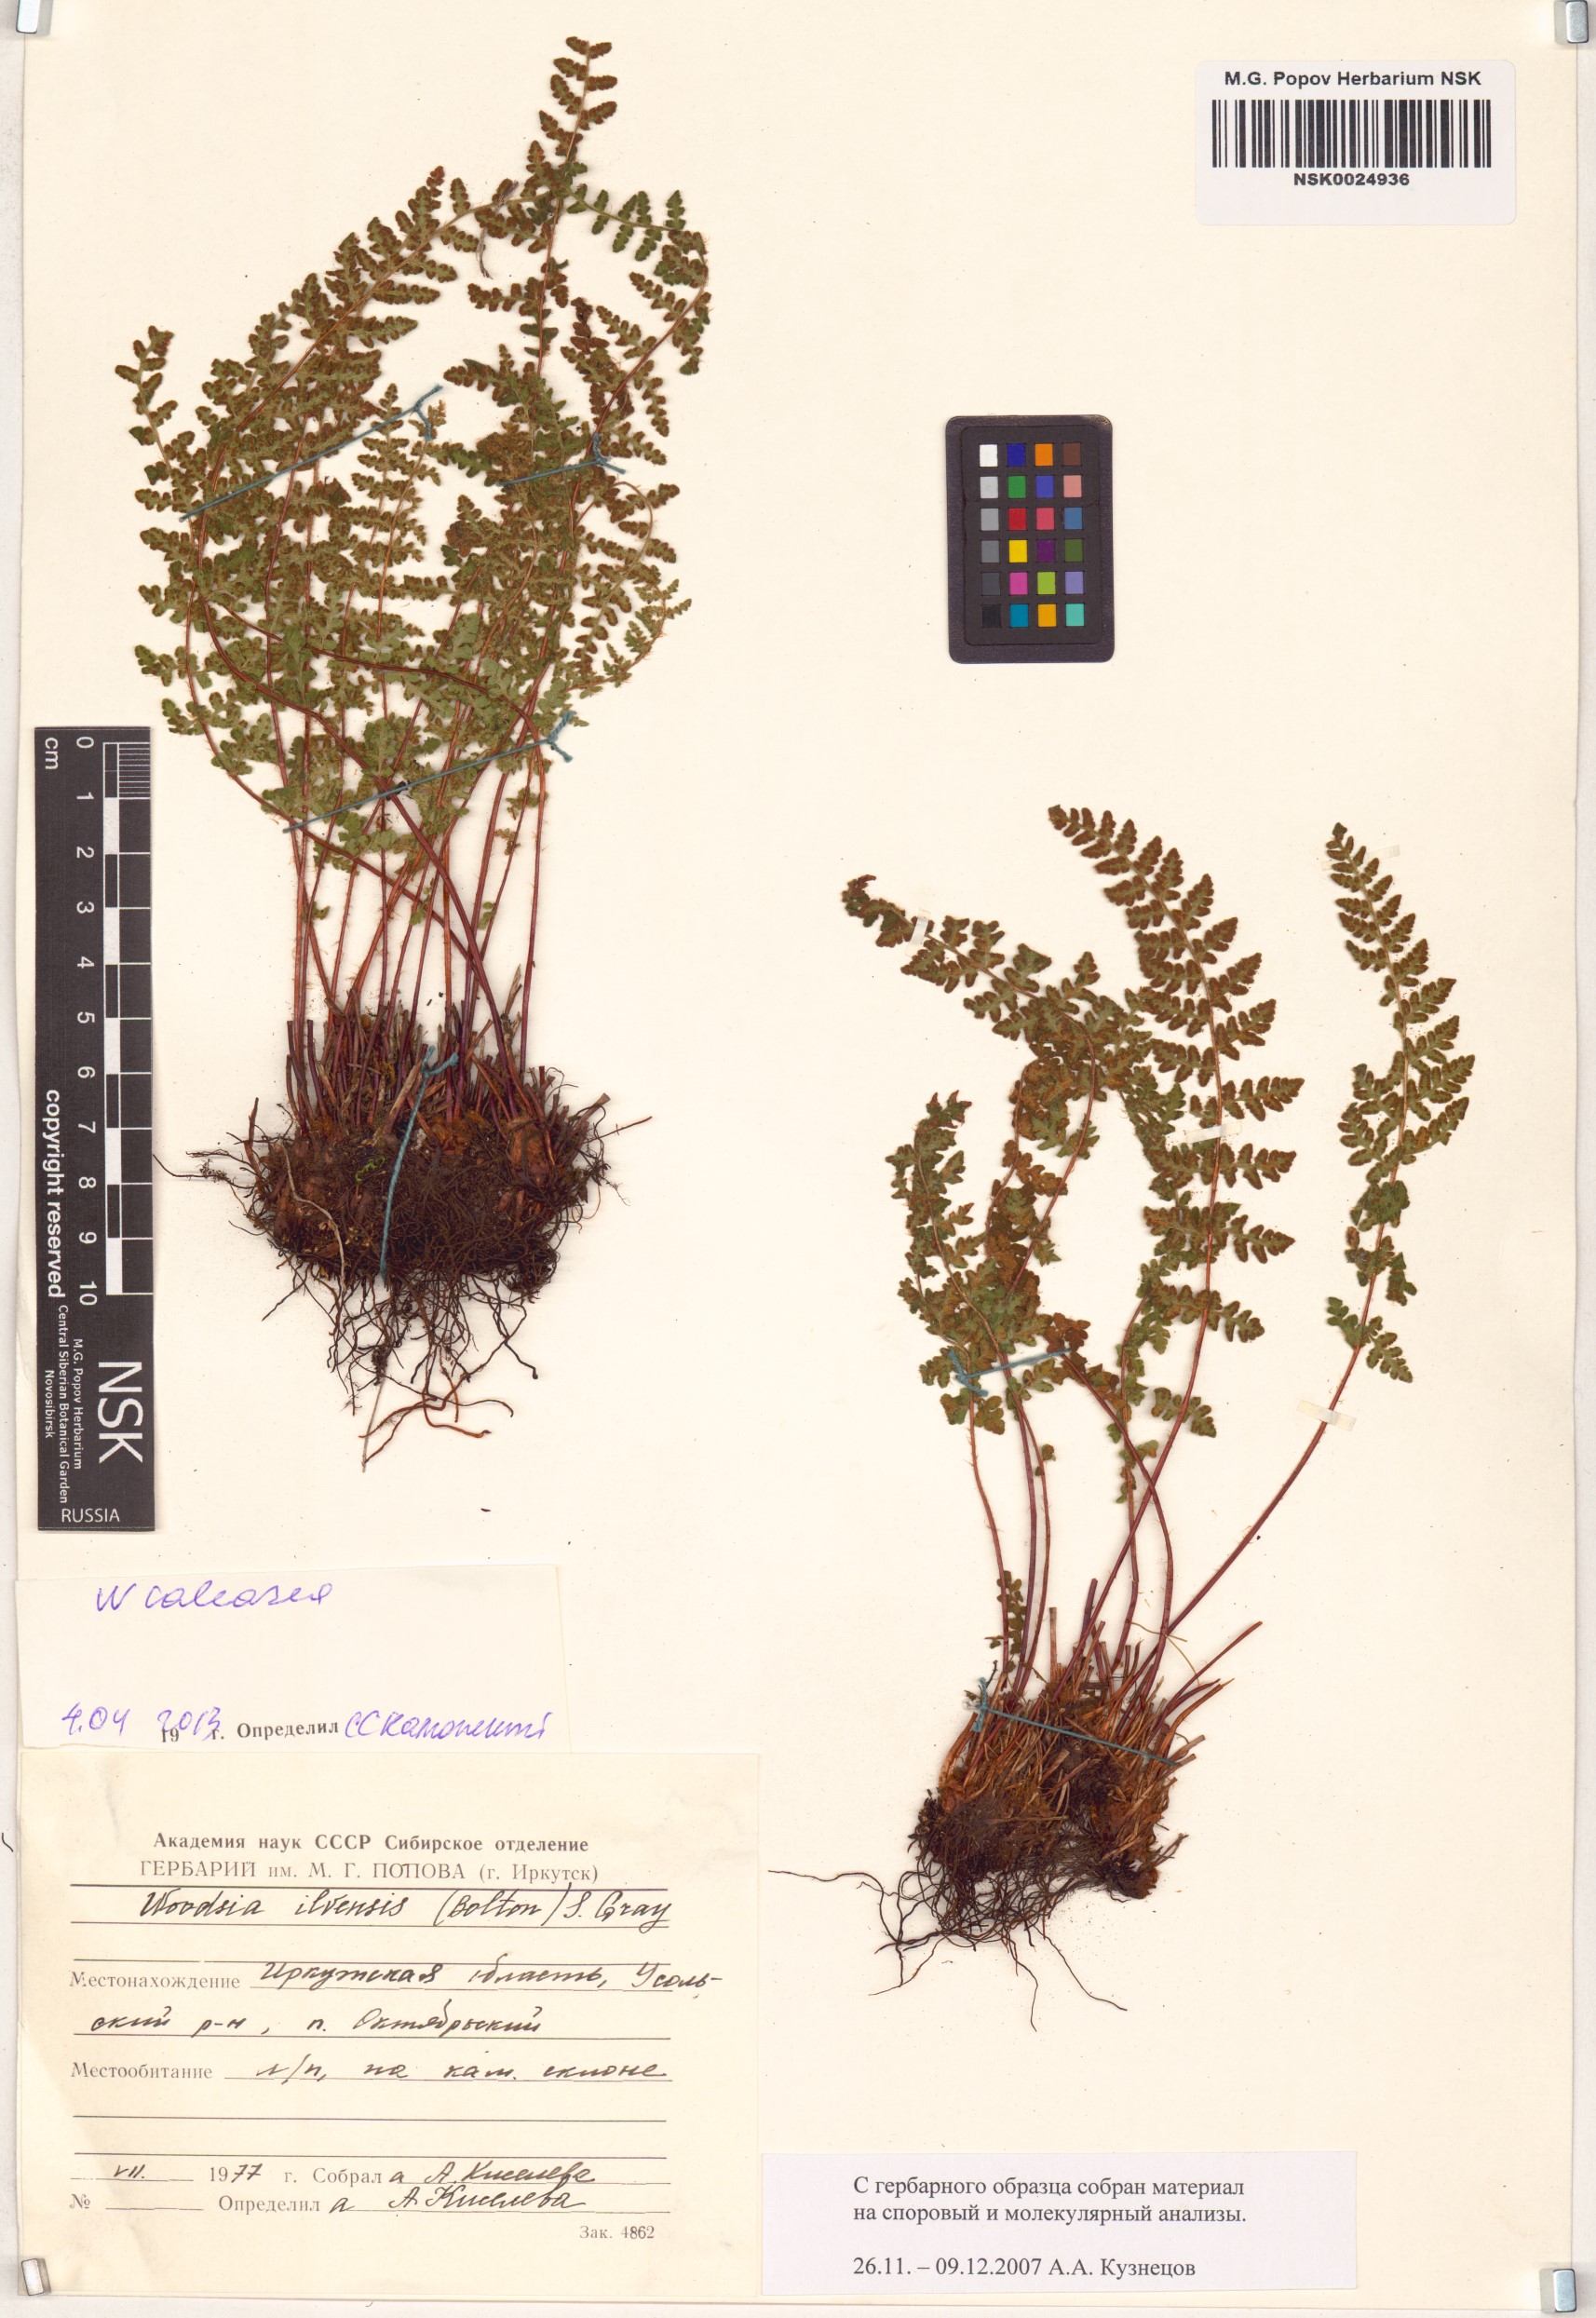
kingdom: Plantae
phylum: Tracheophyta
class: Polypodiopsida
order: Polypodiales
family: Woodsiaceae
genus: Woodsia
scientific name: Woodsia calcarea
